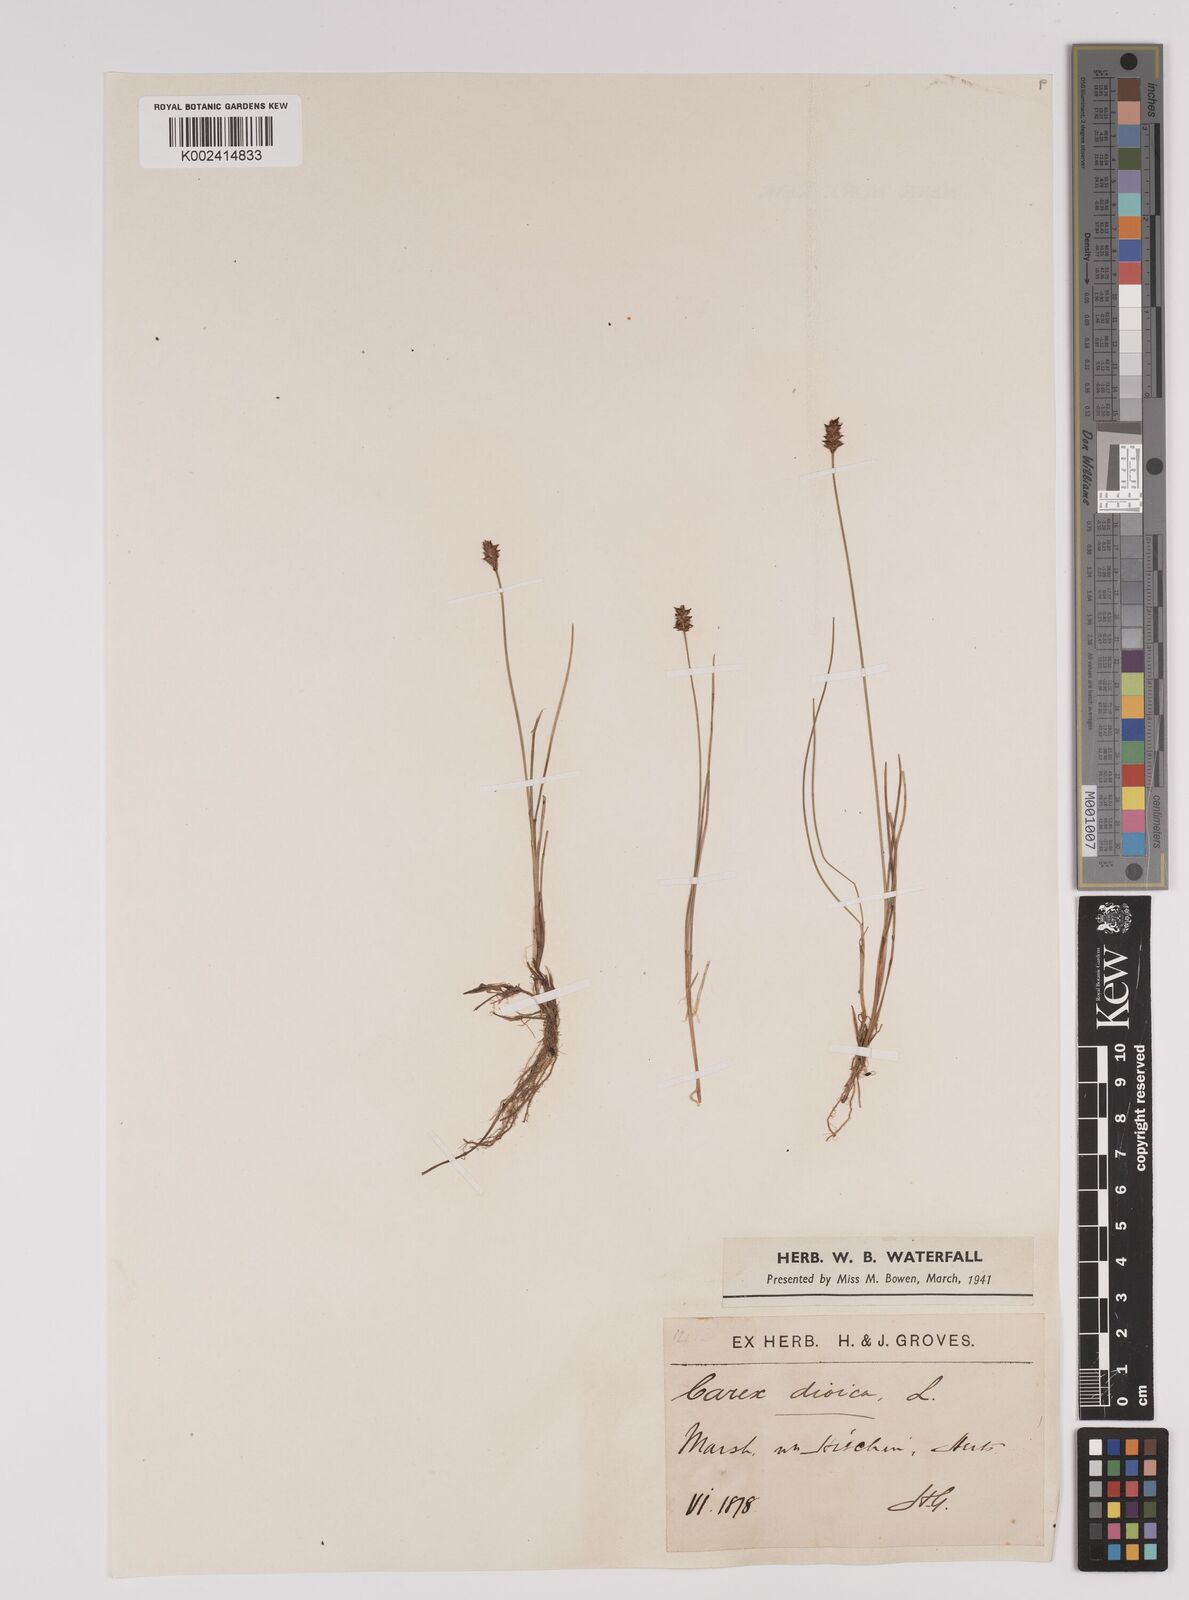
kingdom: Plantae
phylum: Tracheophyta
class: Liliopsida
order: Poales
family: Cyperaceae
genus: Carex
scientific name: Carex dioica
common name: Dioecious sedge
